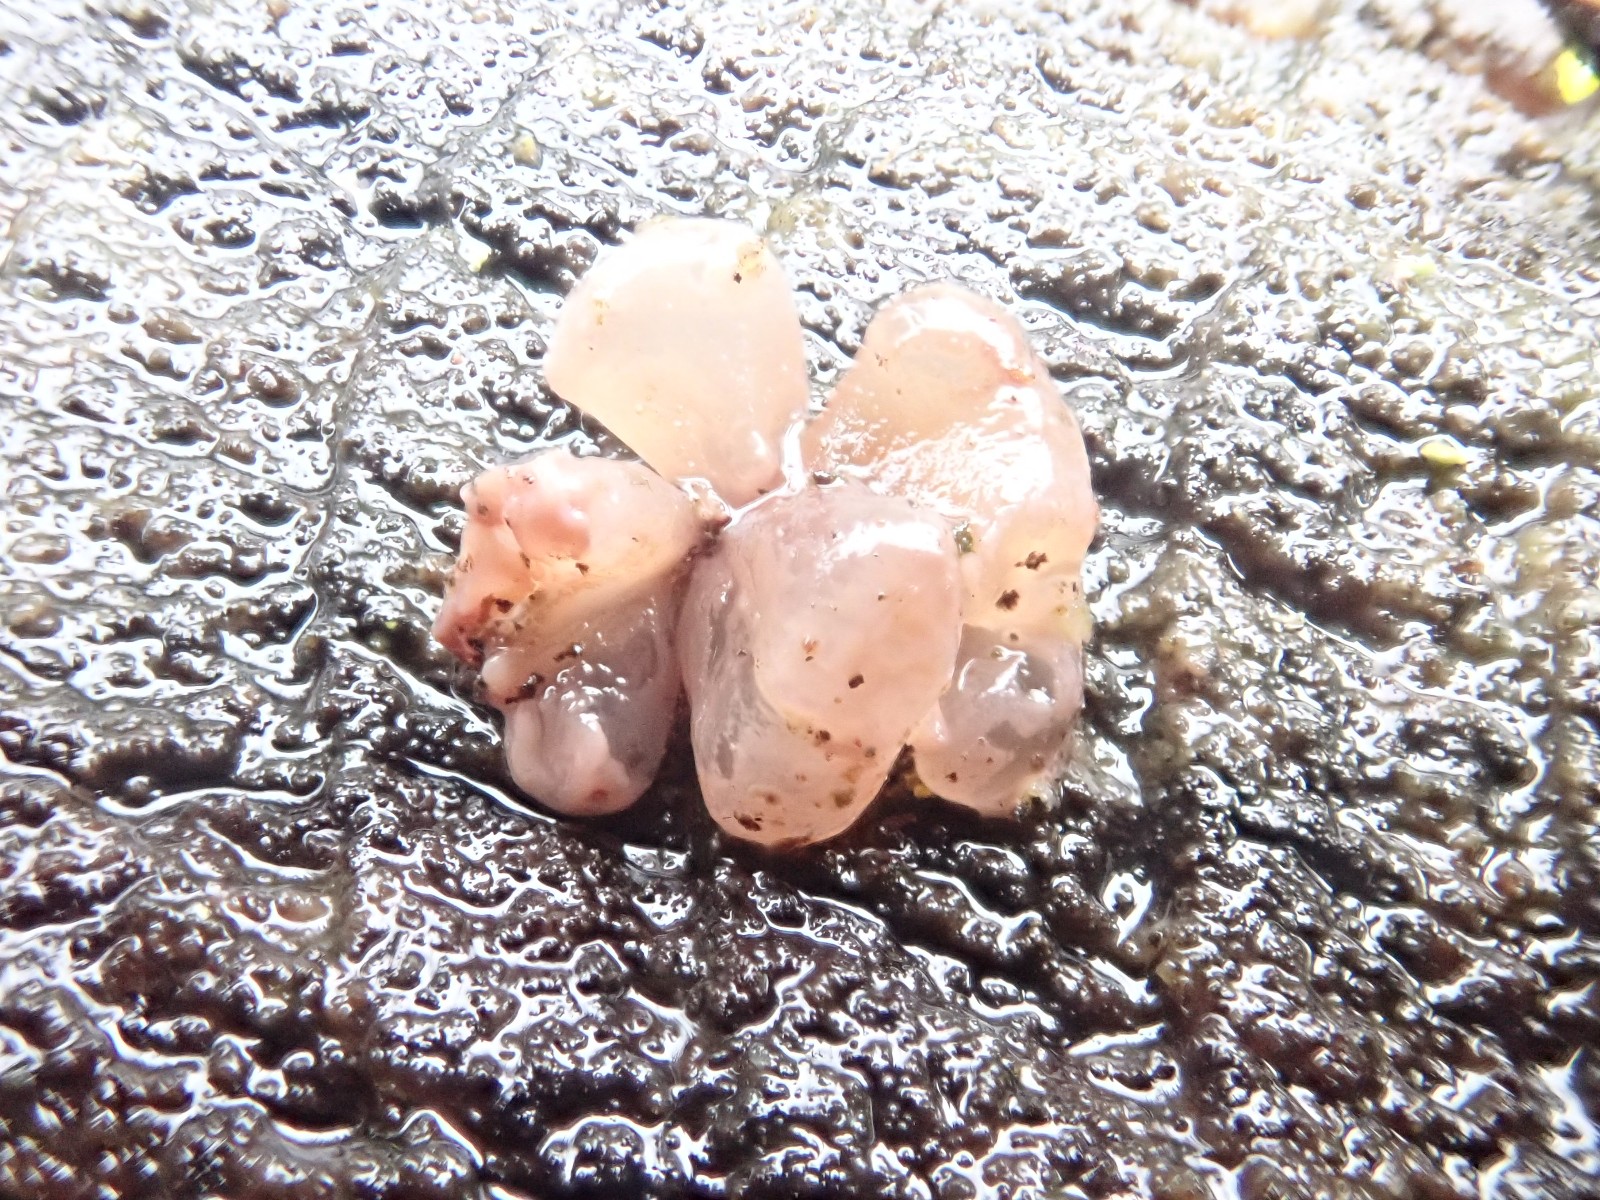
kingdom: Fungi
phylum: Ascomycota
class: Leotiomycetes
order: Helotiales
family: Gelatinodiscaceae
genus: Ascocoryne
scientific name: Ascocoryne sarcoides
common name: rødlilla sejskive
